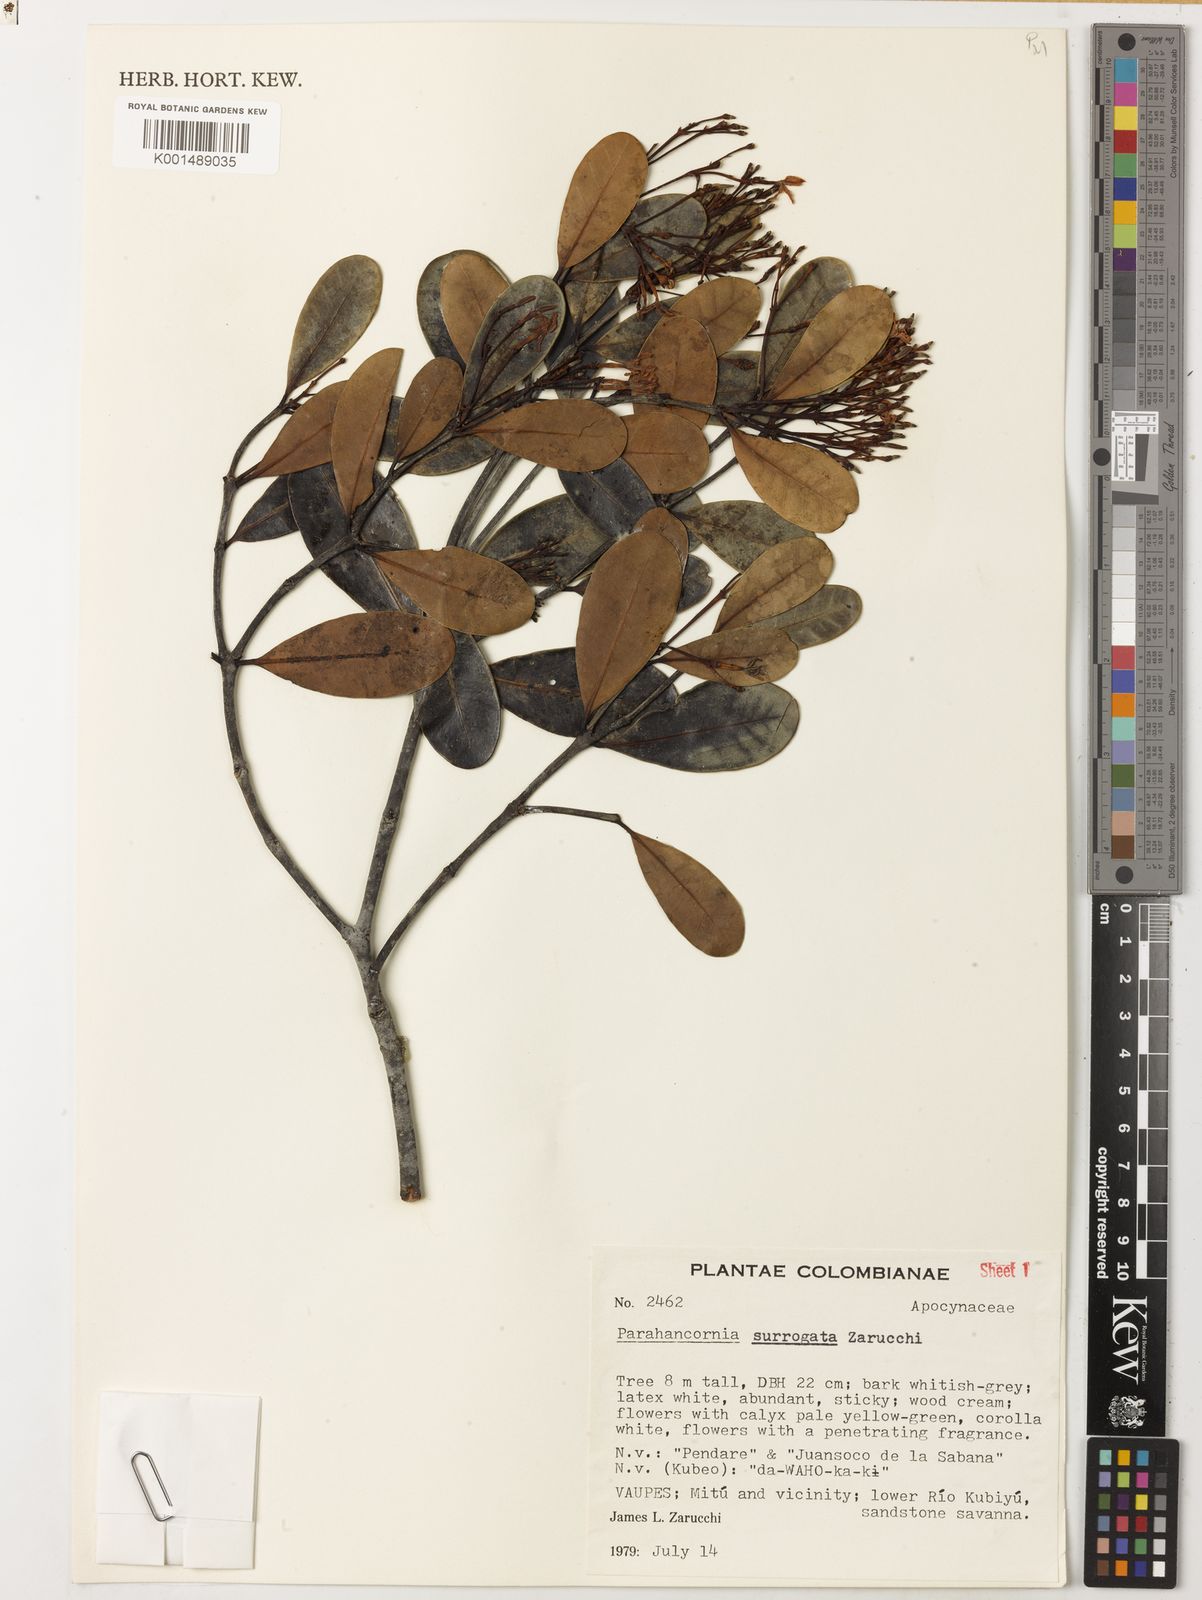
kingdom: Plantae
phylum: Tracheophyta
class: Magnoliopsida
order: Gentianales
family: Apocynaceae
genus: Parahancornia
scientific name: Parahancornia surrogata
